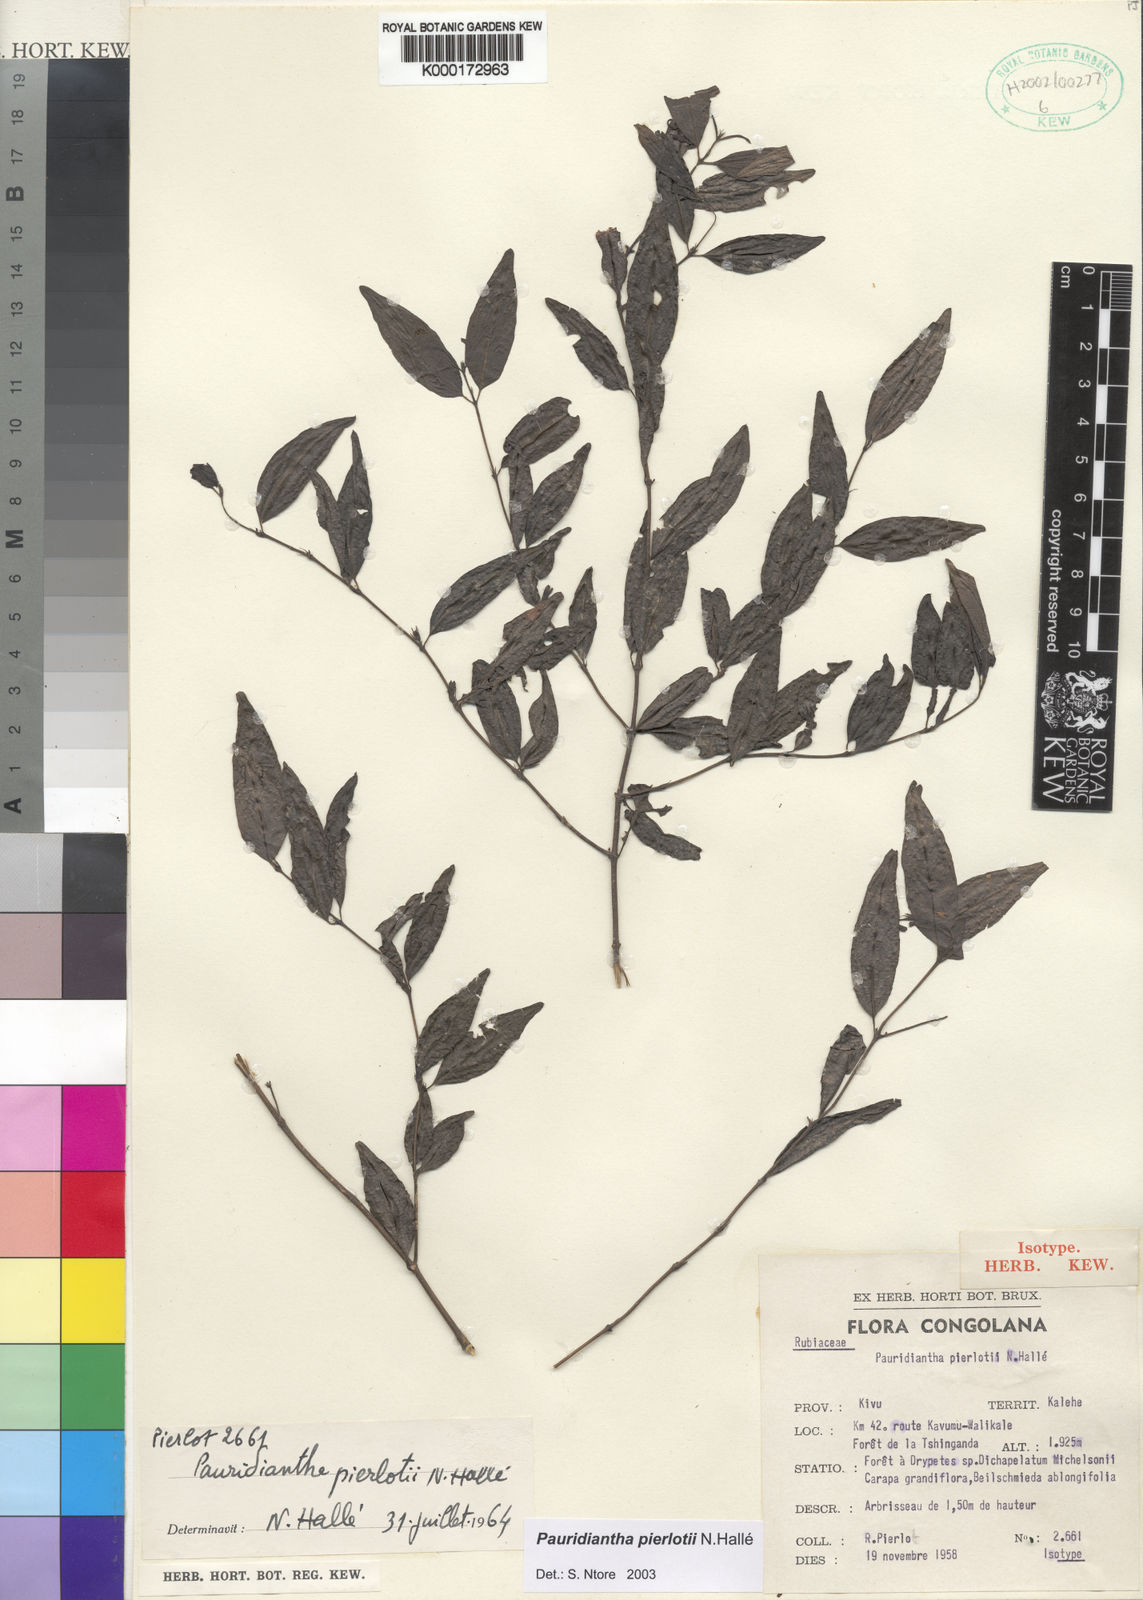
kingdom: Plantae
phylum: Tracheophyta
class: Magnoliopsida
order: Gentianales
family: Rubiaceae
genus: Pauridiantha
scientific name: Pauridiantha
